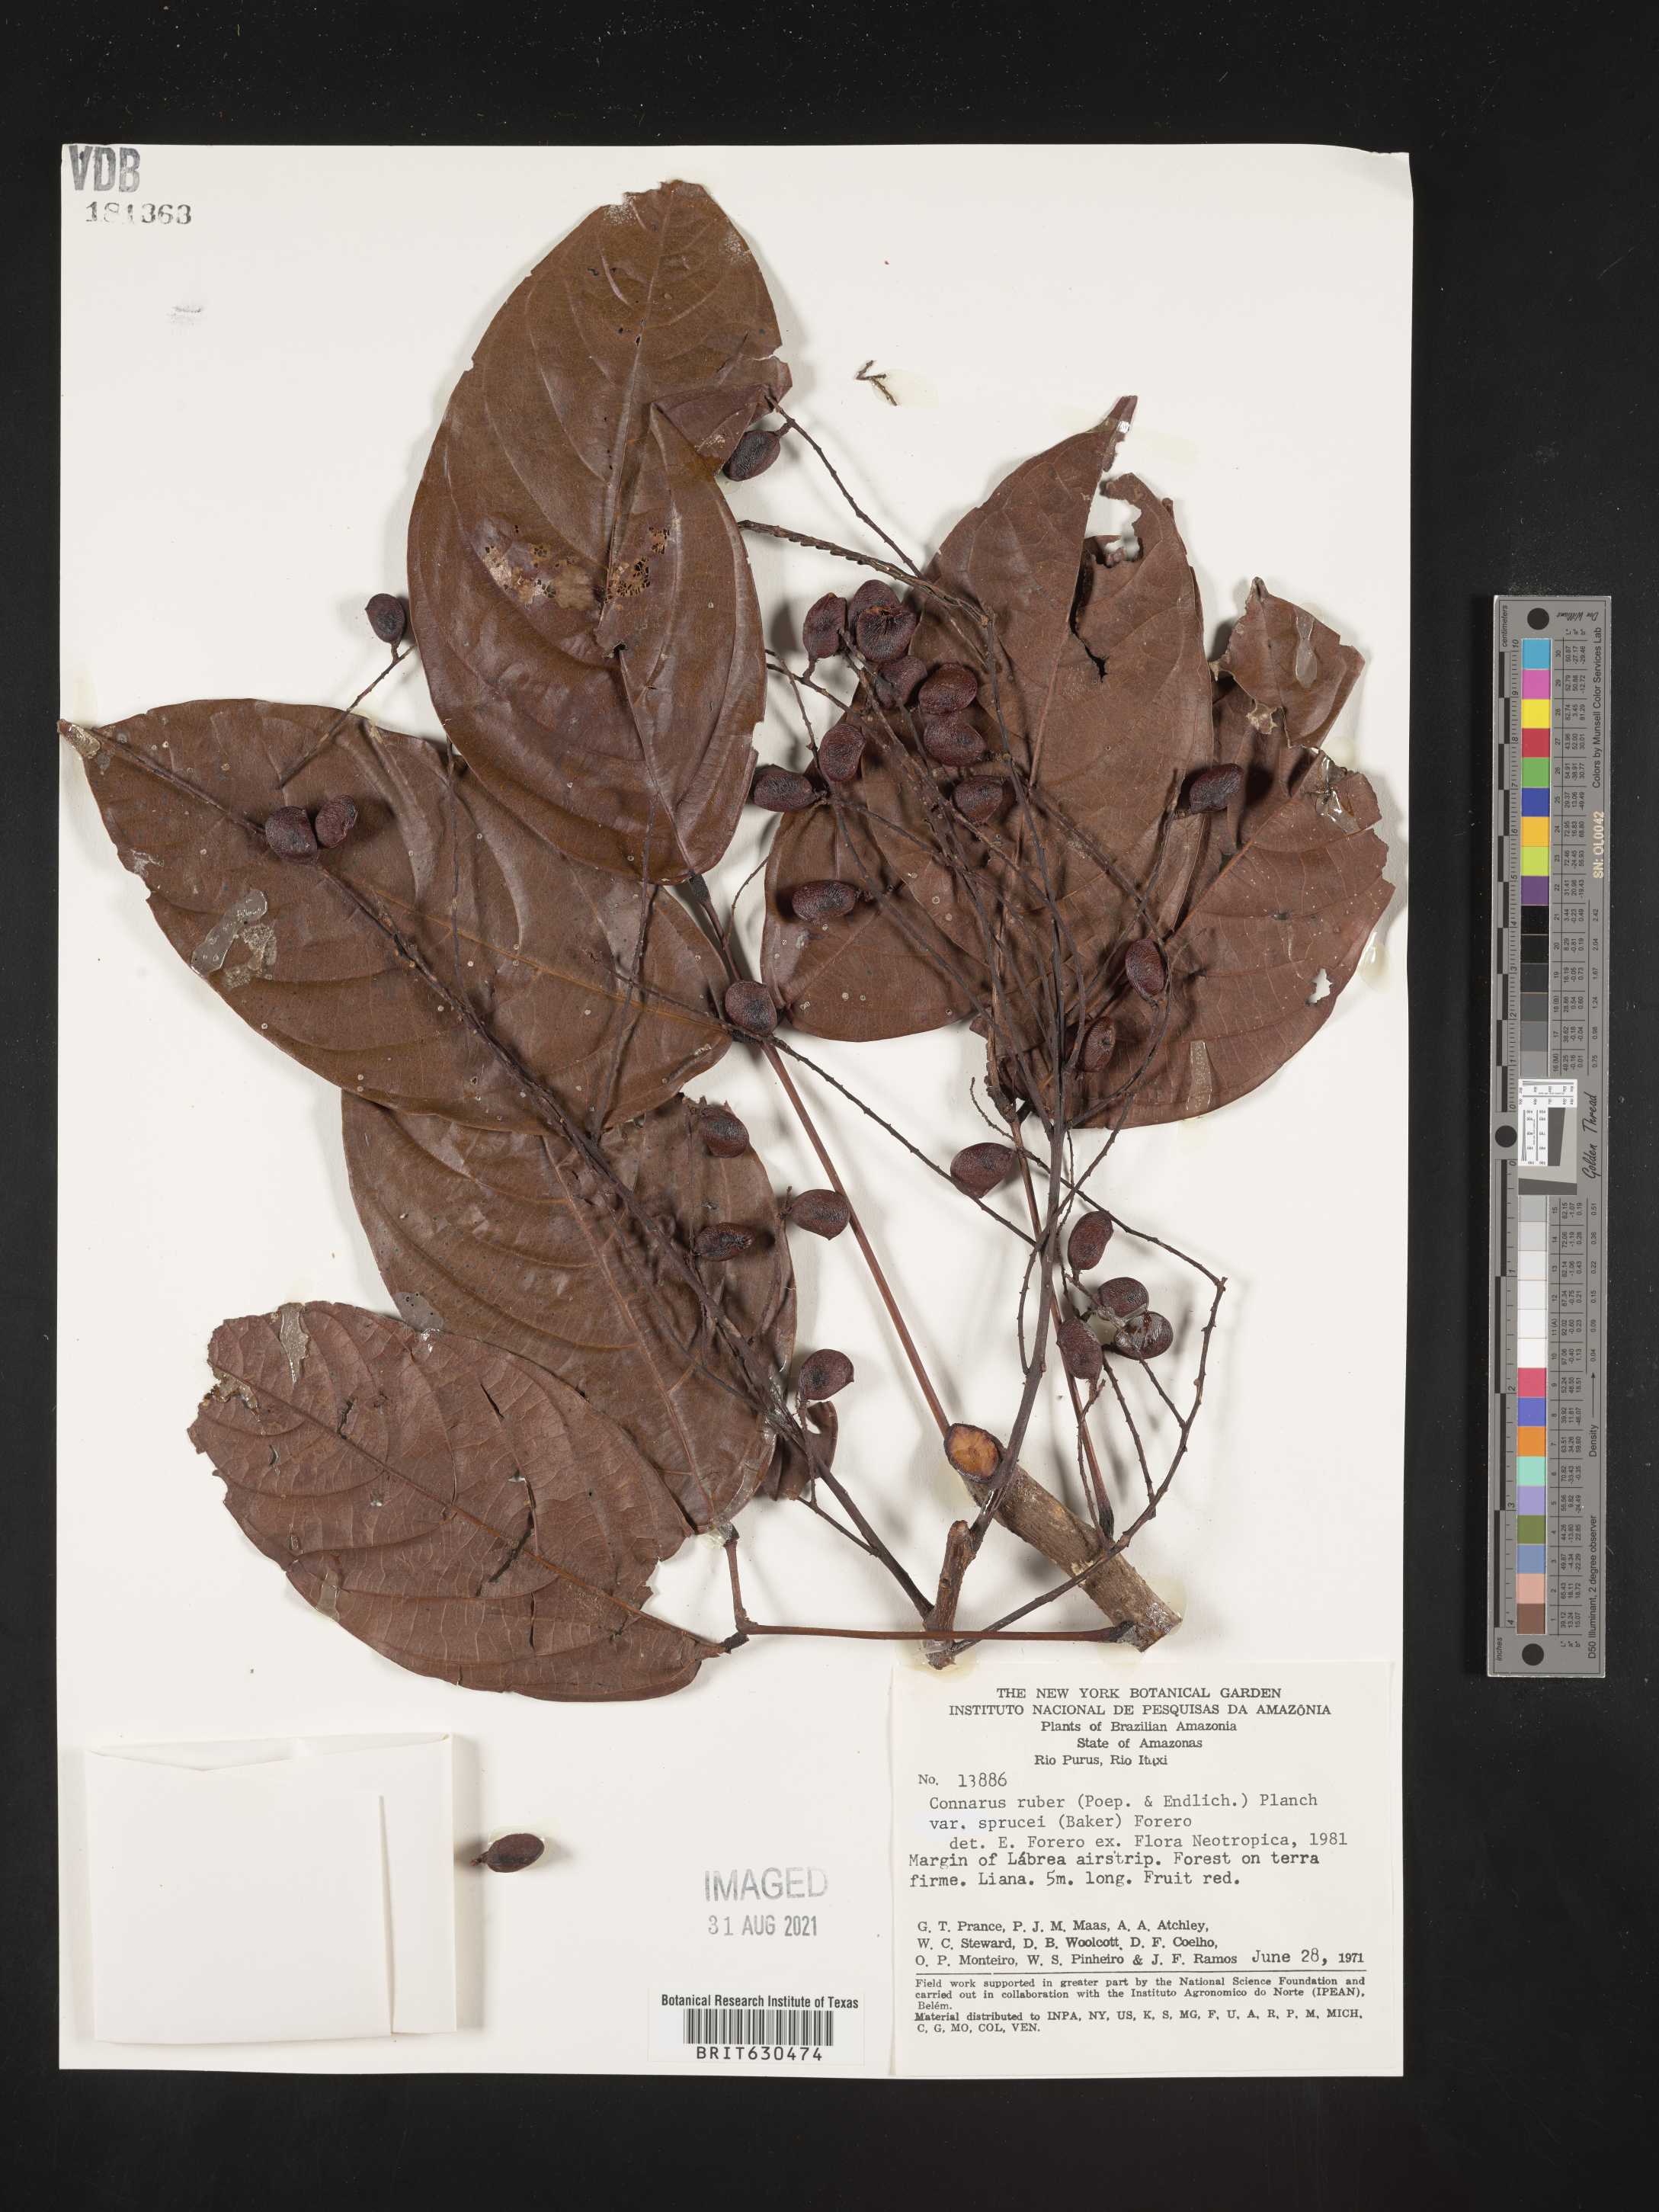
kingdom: Plantae
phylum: Tracheophyta
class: Magnoliopsida
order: Oxalidales
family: Connaraceae
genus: Connarus
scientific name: Connarus ruber
